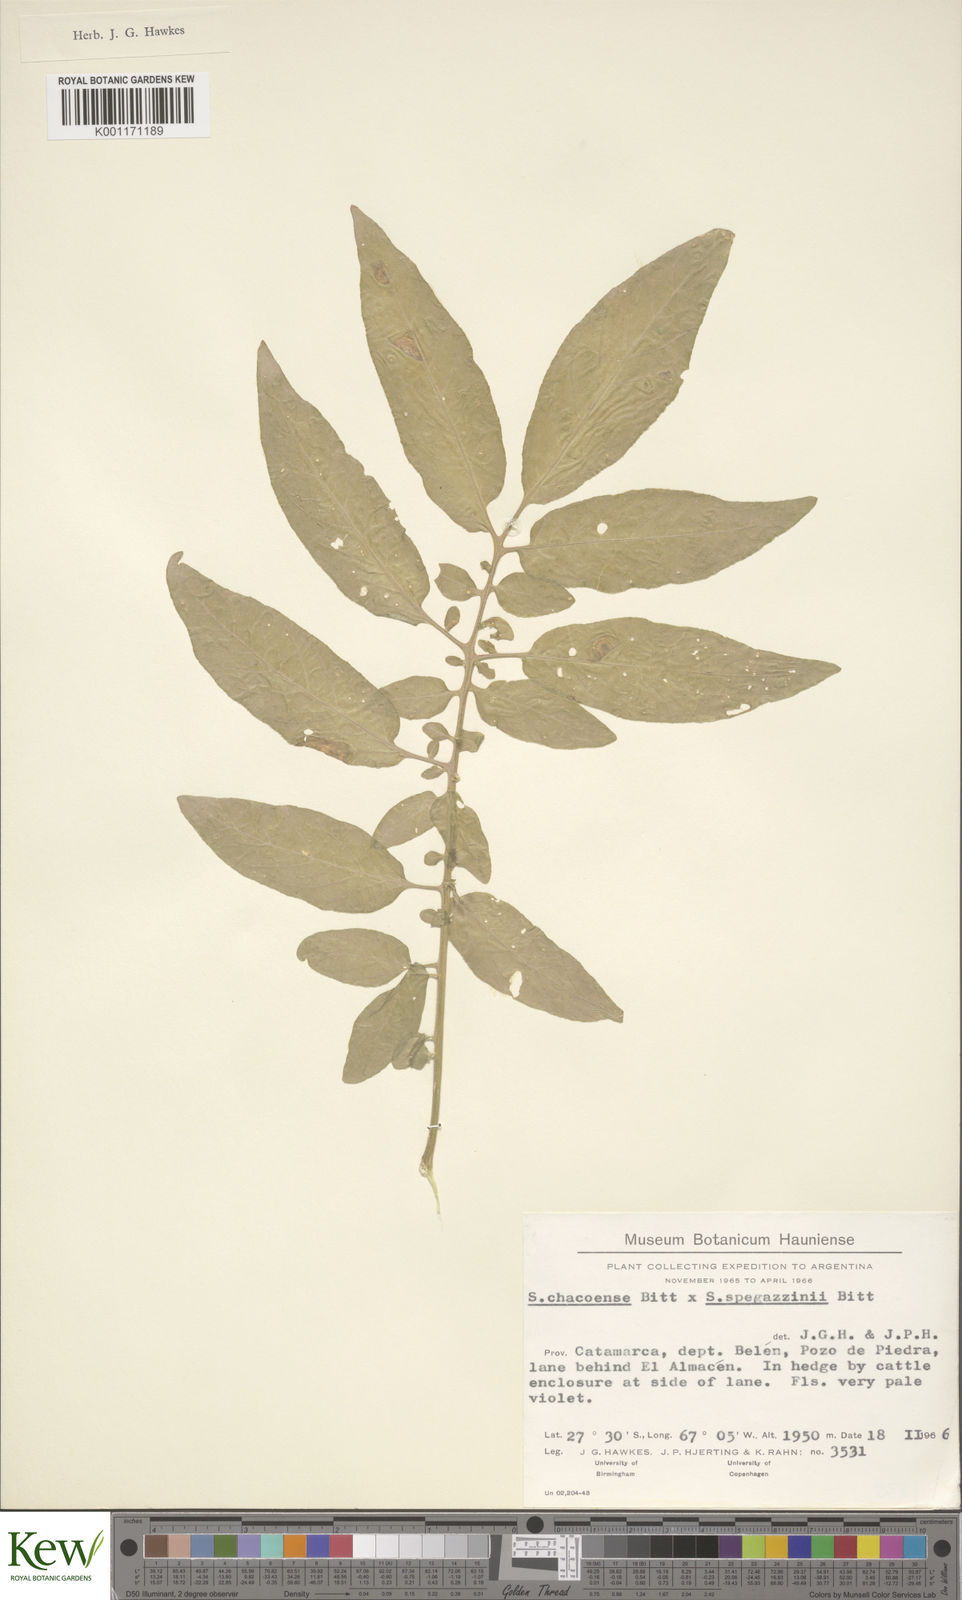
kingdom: Plantae
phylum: Tracheophyta
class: Magnoliopsida
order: Solanales
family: Solanaceae
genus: Solanum
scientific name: Solanum chacoense
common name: Chaco potato
